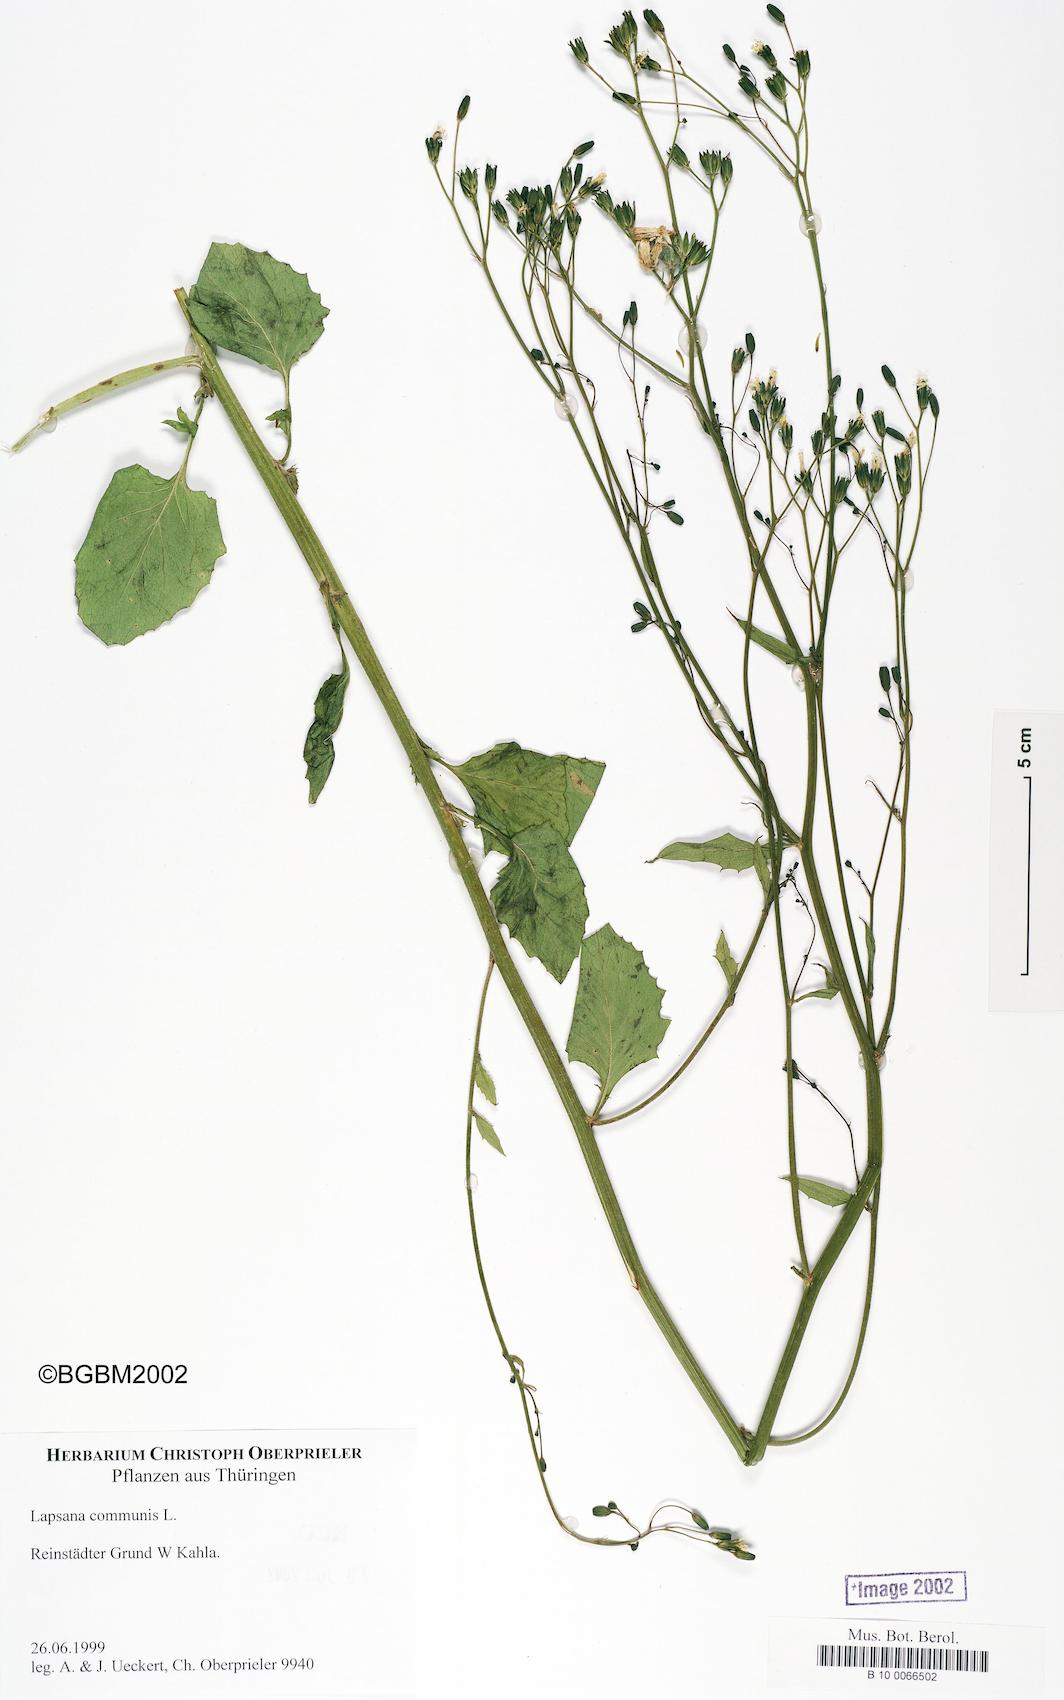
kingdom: Plantae
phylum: Tracheophyta
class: Magnoliopsida
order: Asterales
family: Asteraceae
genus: Lapsana
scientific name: Lapsana communis
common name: Nipplewort
